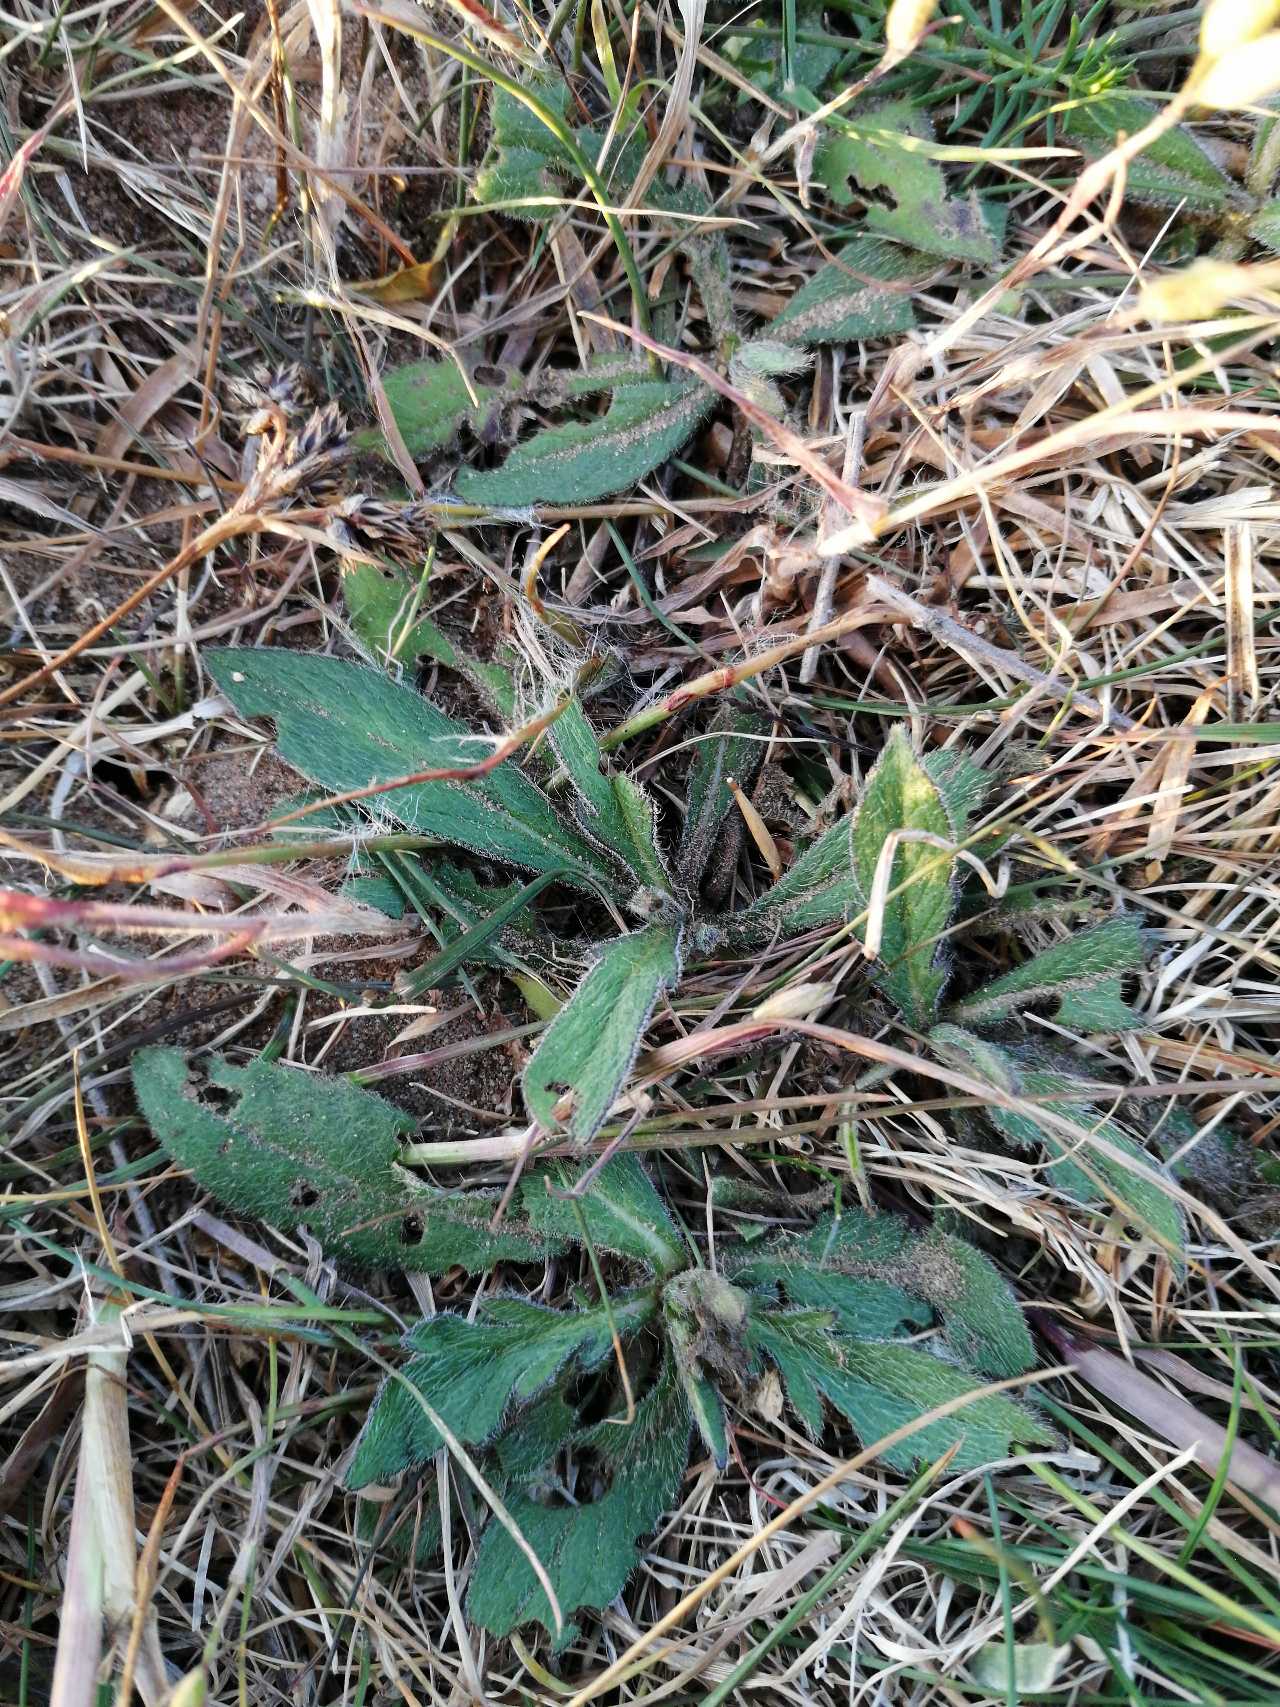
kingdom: Plantae
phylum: Tracheophyta
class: Magnoliopsida
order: Dipsacales
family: Caprifoliaceae
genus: Knautia
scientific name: Knautia arvensis
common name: Blåhat
